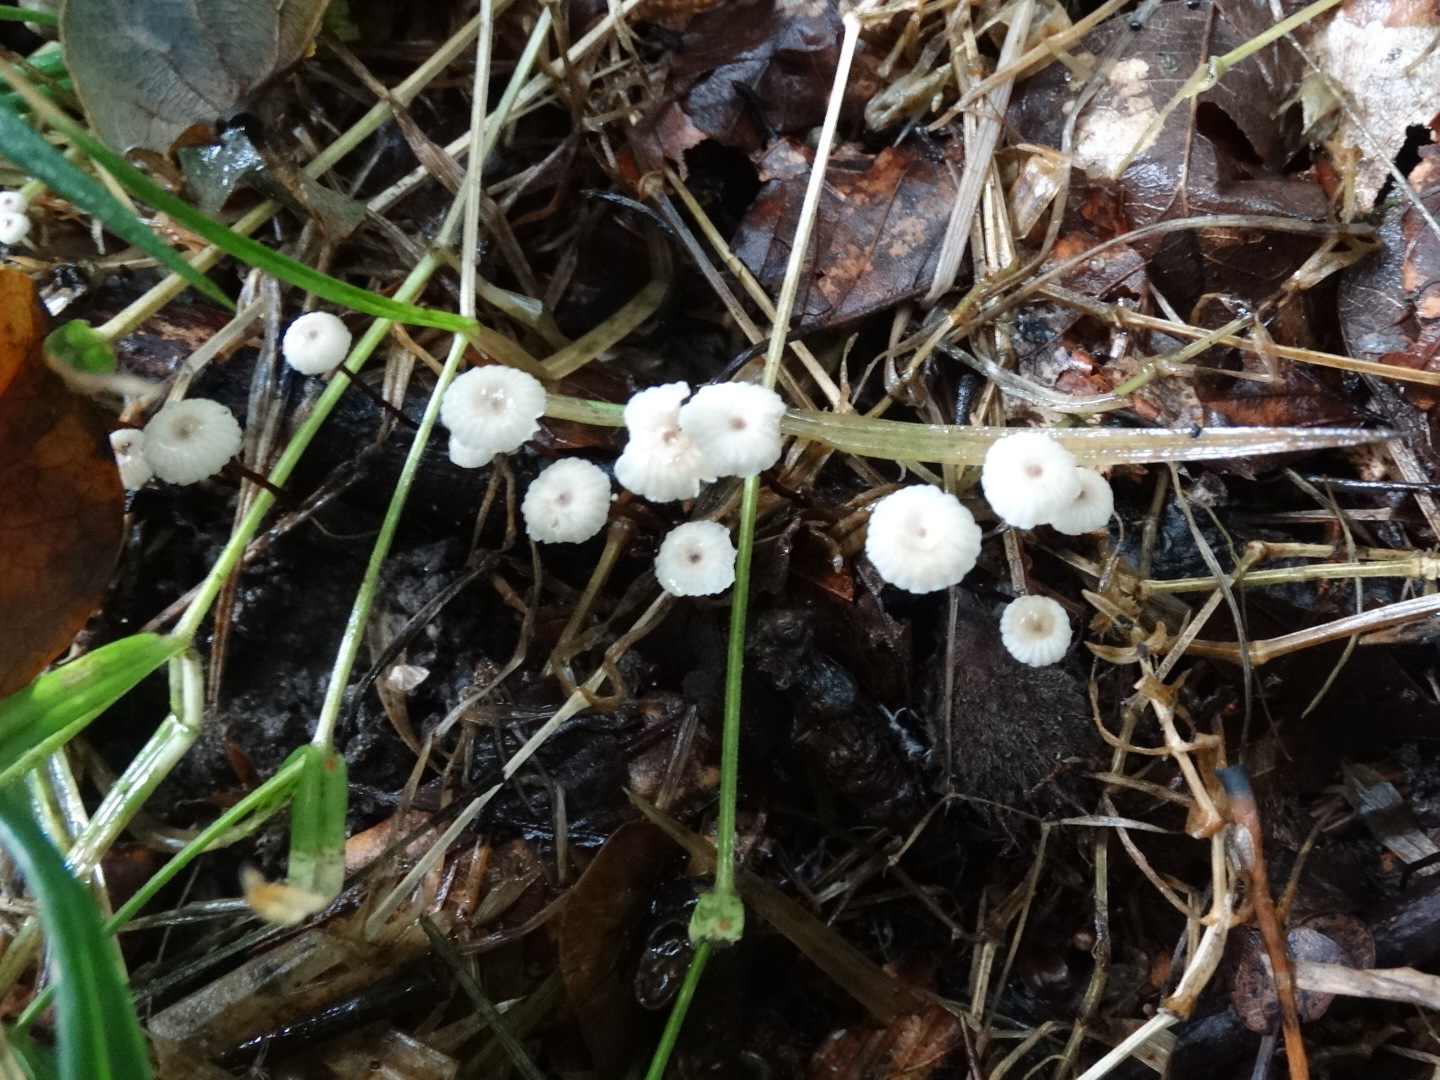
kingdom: Fungi
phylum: Basidiomycota
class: Agaricomycetes
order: Agaricales
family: Marasmiaceae
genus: Marasmius
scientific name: Marasmius rotula
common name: hjul-bruskhat
